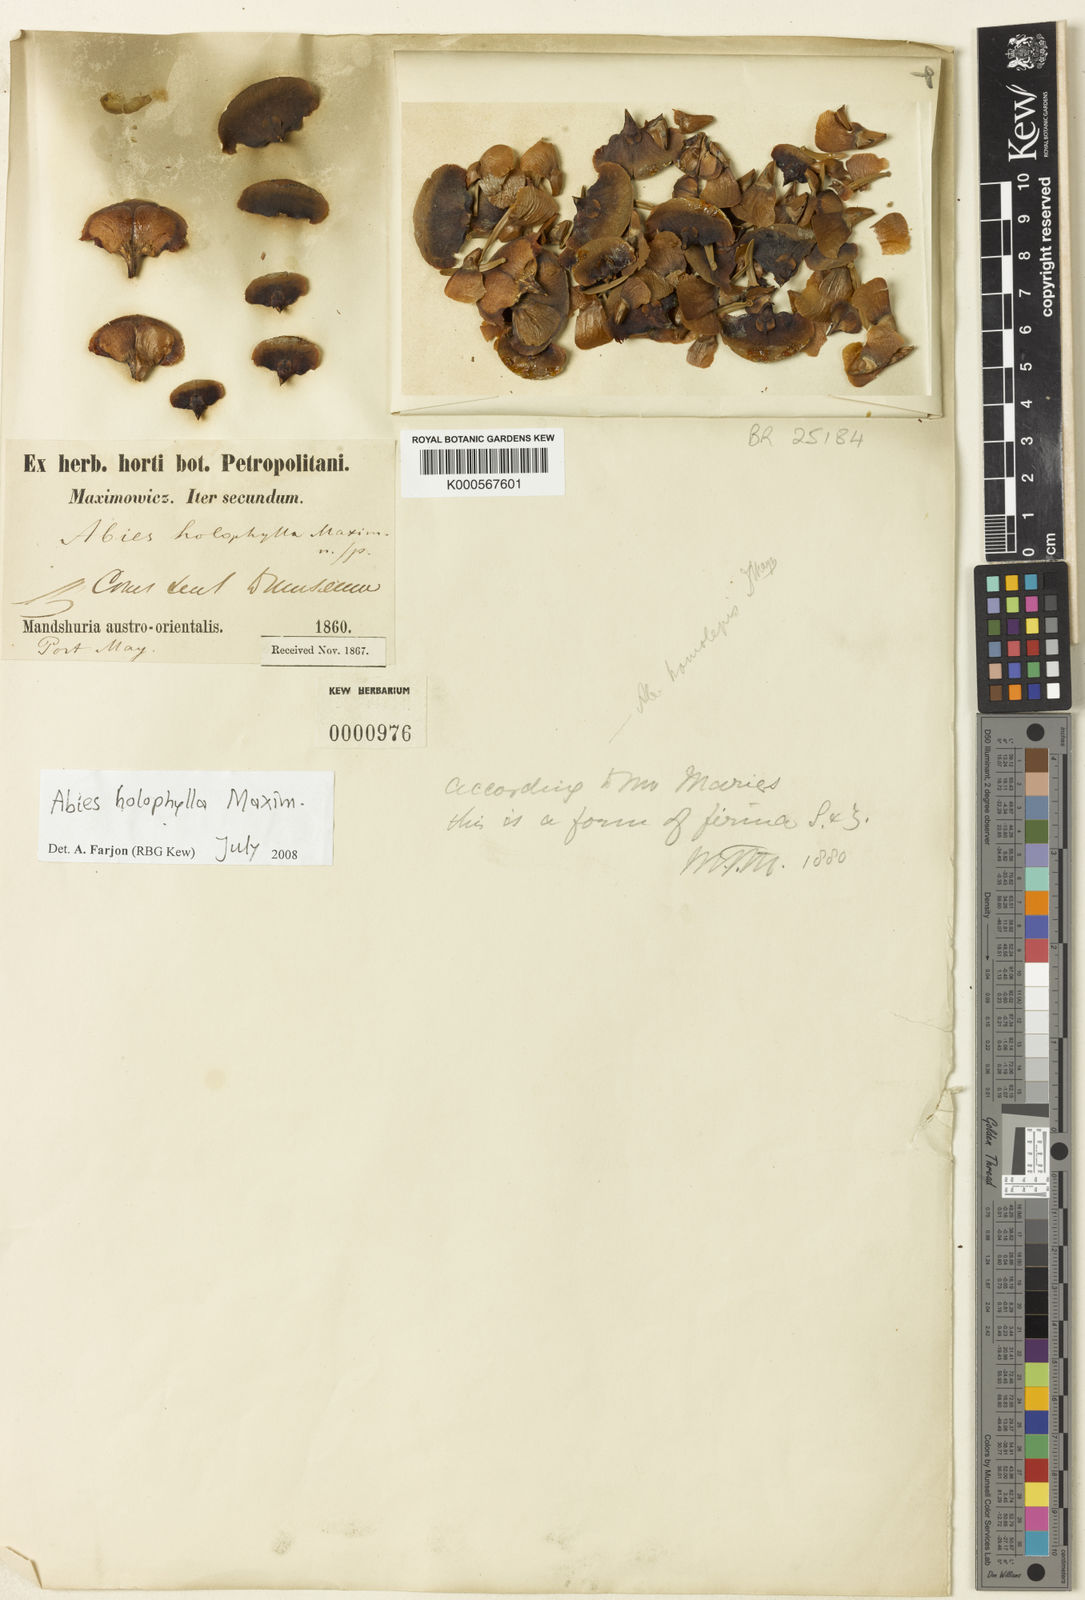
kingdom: Plantae
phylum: Tracheophyta
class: Pinopsida
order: Pinales
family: Pinaceae
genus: Abies
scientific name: Abies holophylla
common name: Manchurian fir
